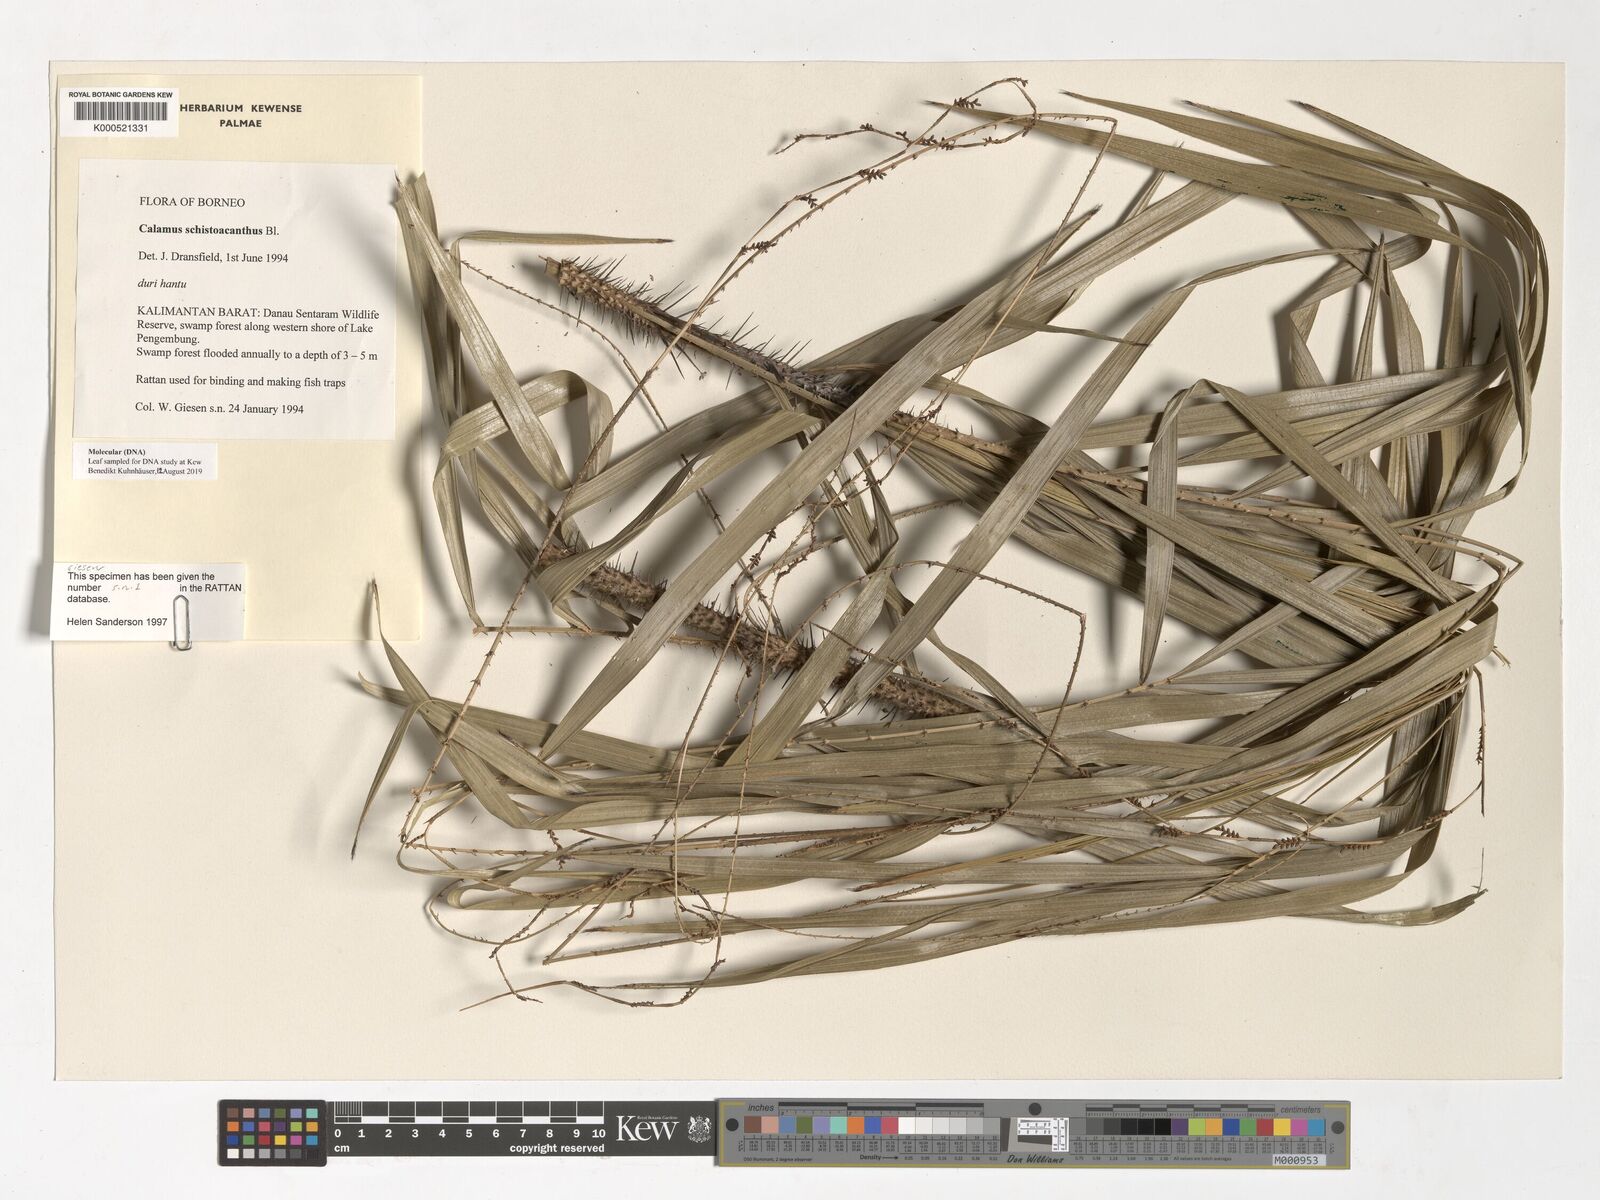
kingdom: Plantae
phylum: Tracheophyta
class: Liliopsida
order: Arecales
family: Arecaceae
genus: Calamus
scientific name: Calamus schistoacanthus
